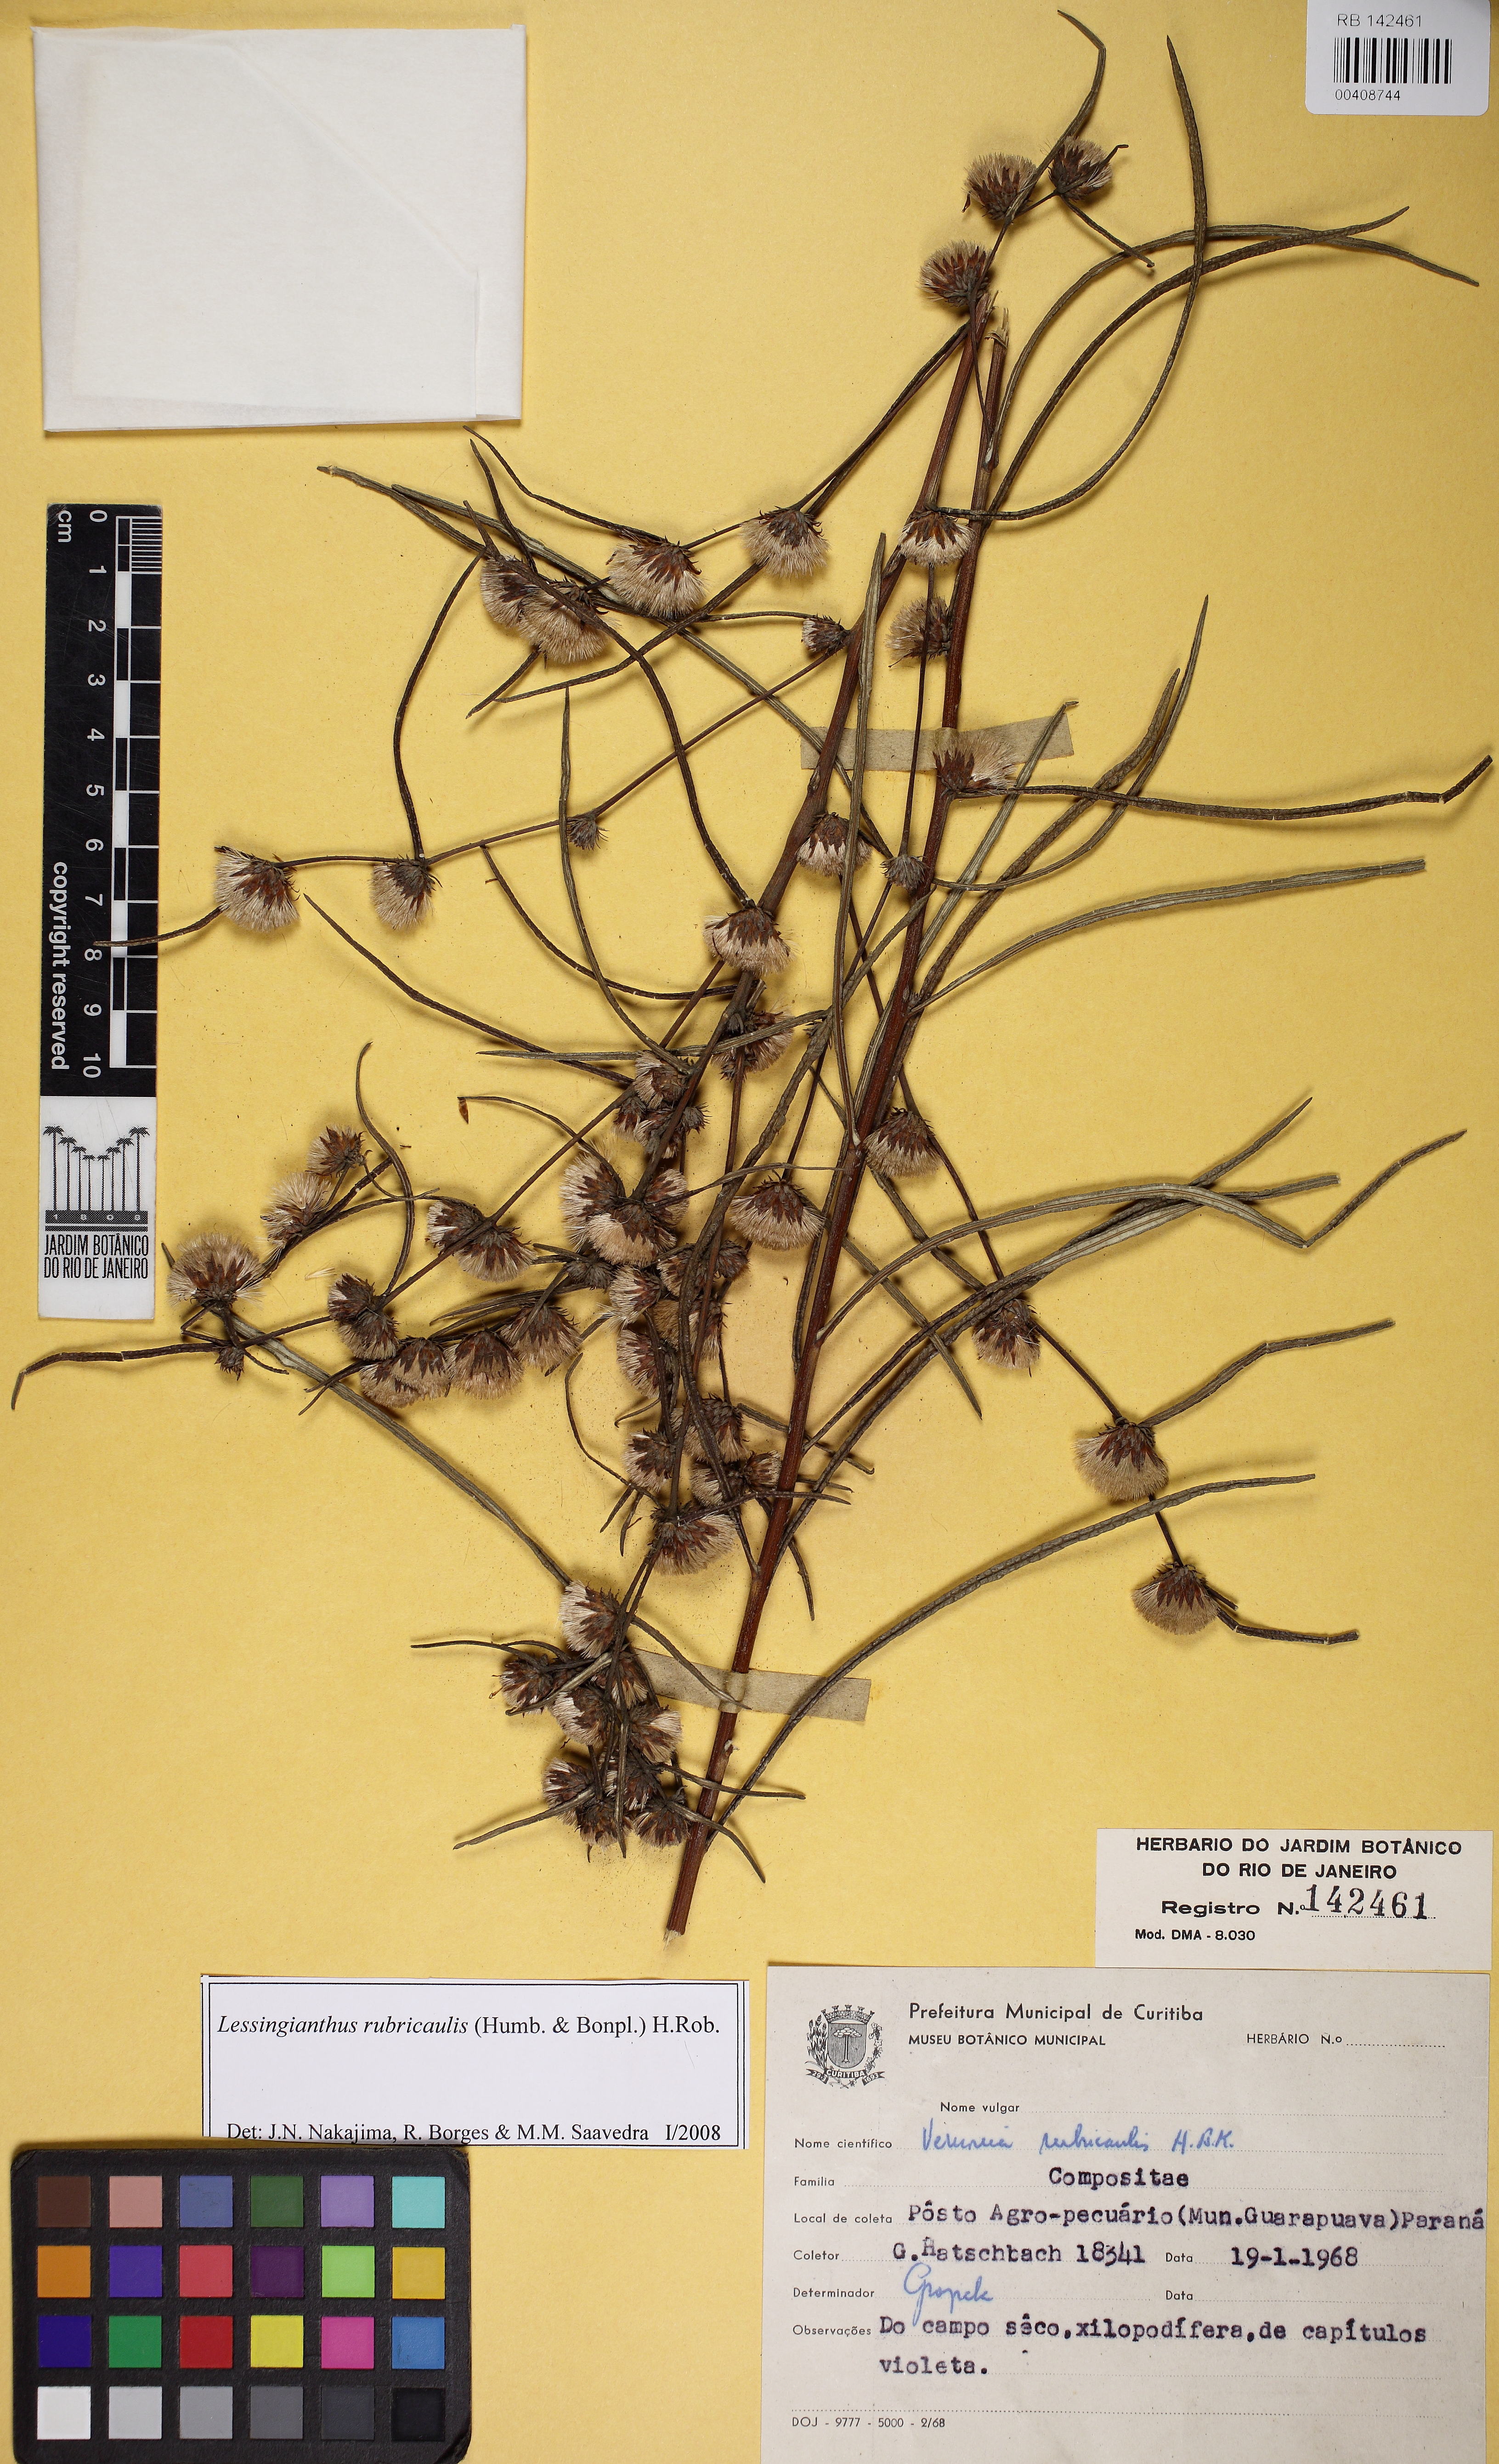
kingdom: Plantae
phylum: Tracheophyta
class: Magnoliopsida
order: Asterales
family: Asteraceae
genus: Lessingianthus
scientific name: Lessingianthus rubricaulis
